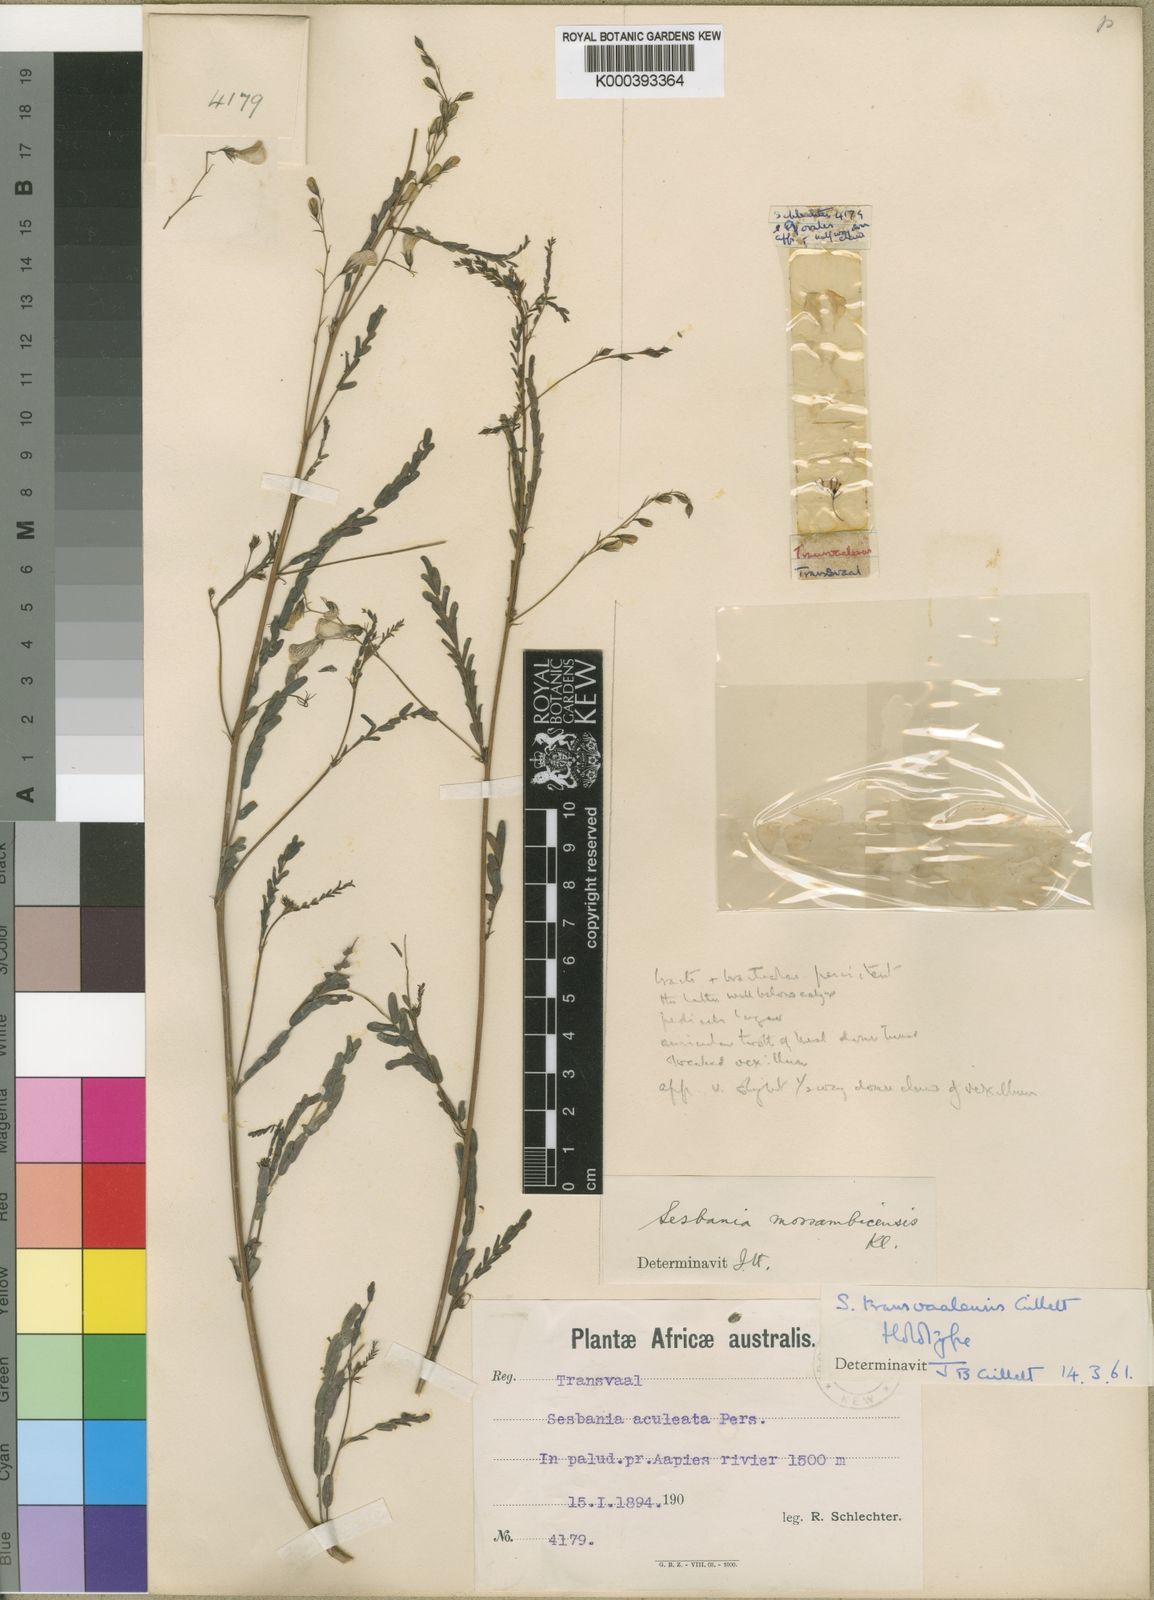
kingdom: Plantae
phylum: Tracheophyta
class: Magnoliopsida
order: Fabales
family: Fabaceae
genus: Sesbania
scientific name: Sesbania transvaalensis
